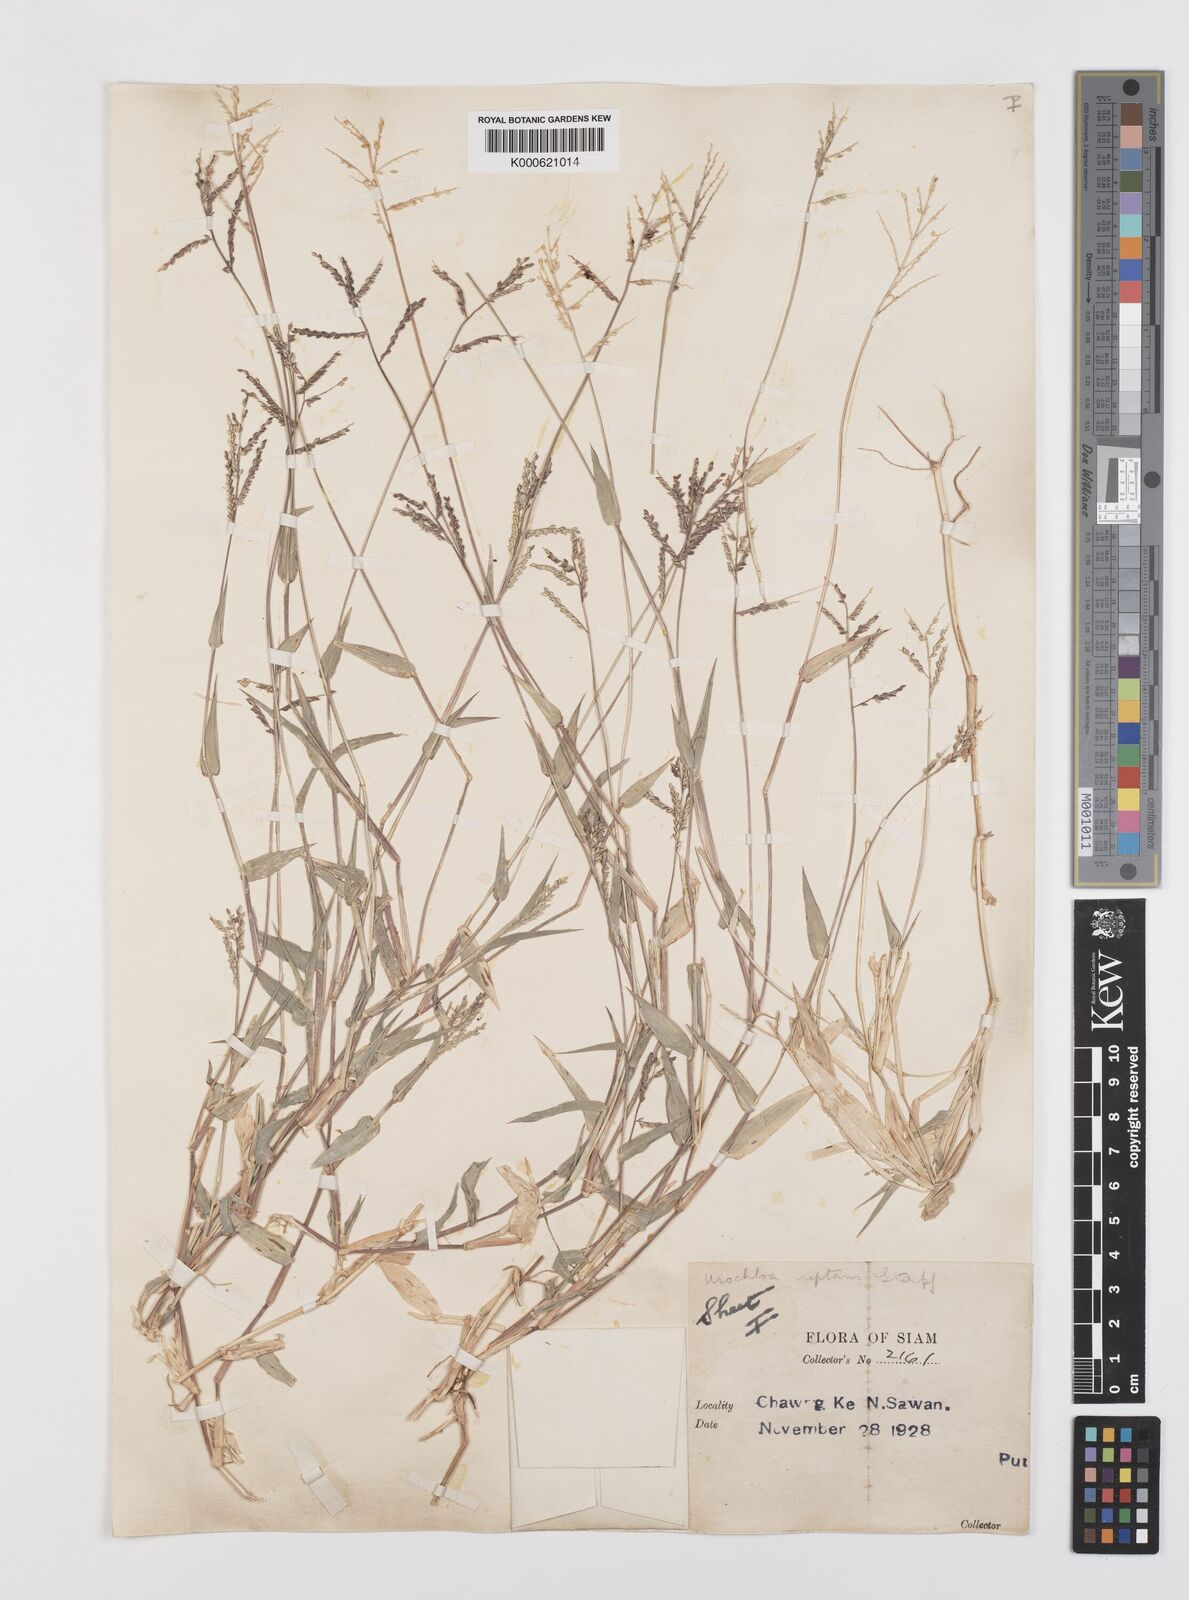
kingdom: Plantae
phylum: Tracheophyta
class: Liliopsida
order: Poales
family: Poaceae
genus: Urochloa
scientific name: Urochloa reptans
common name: Sprawling signalgrass
